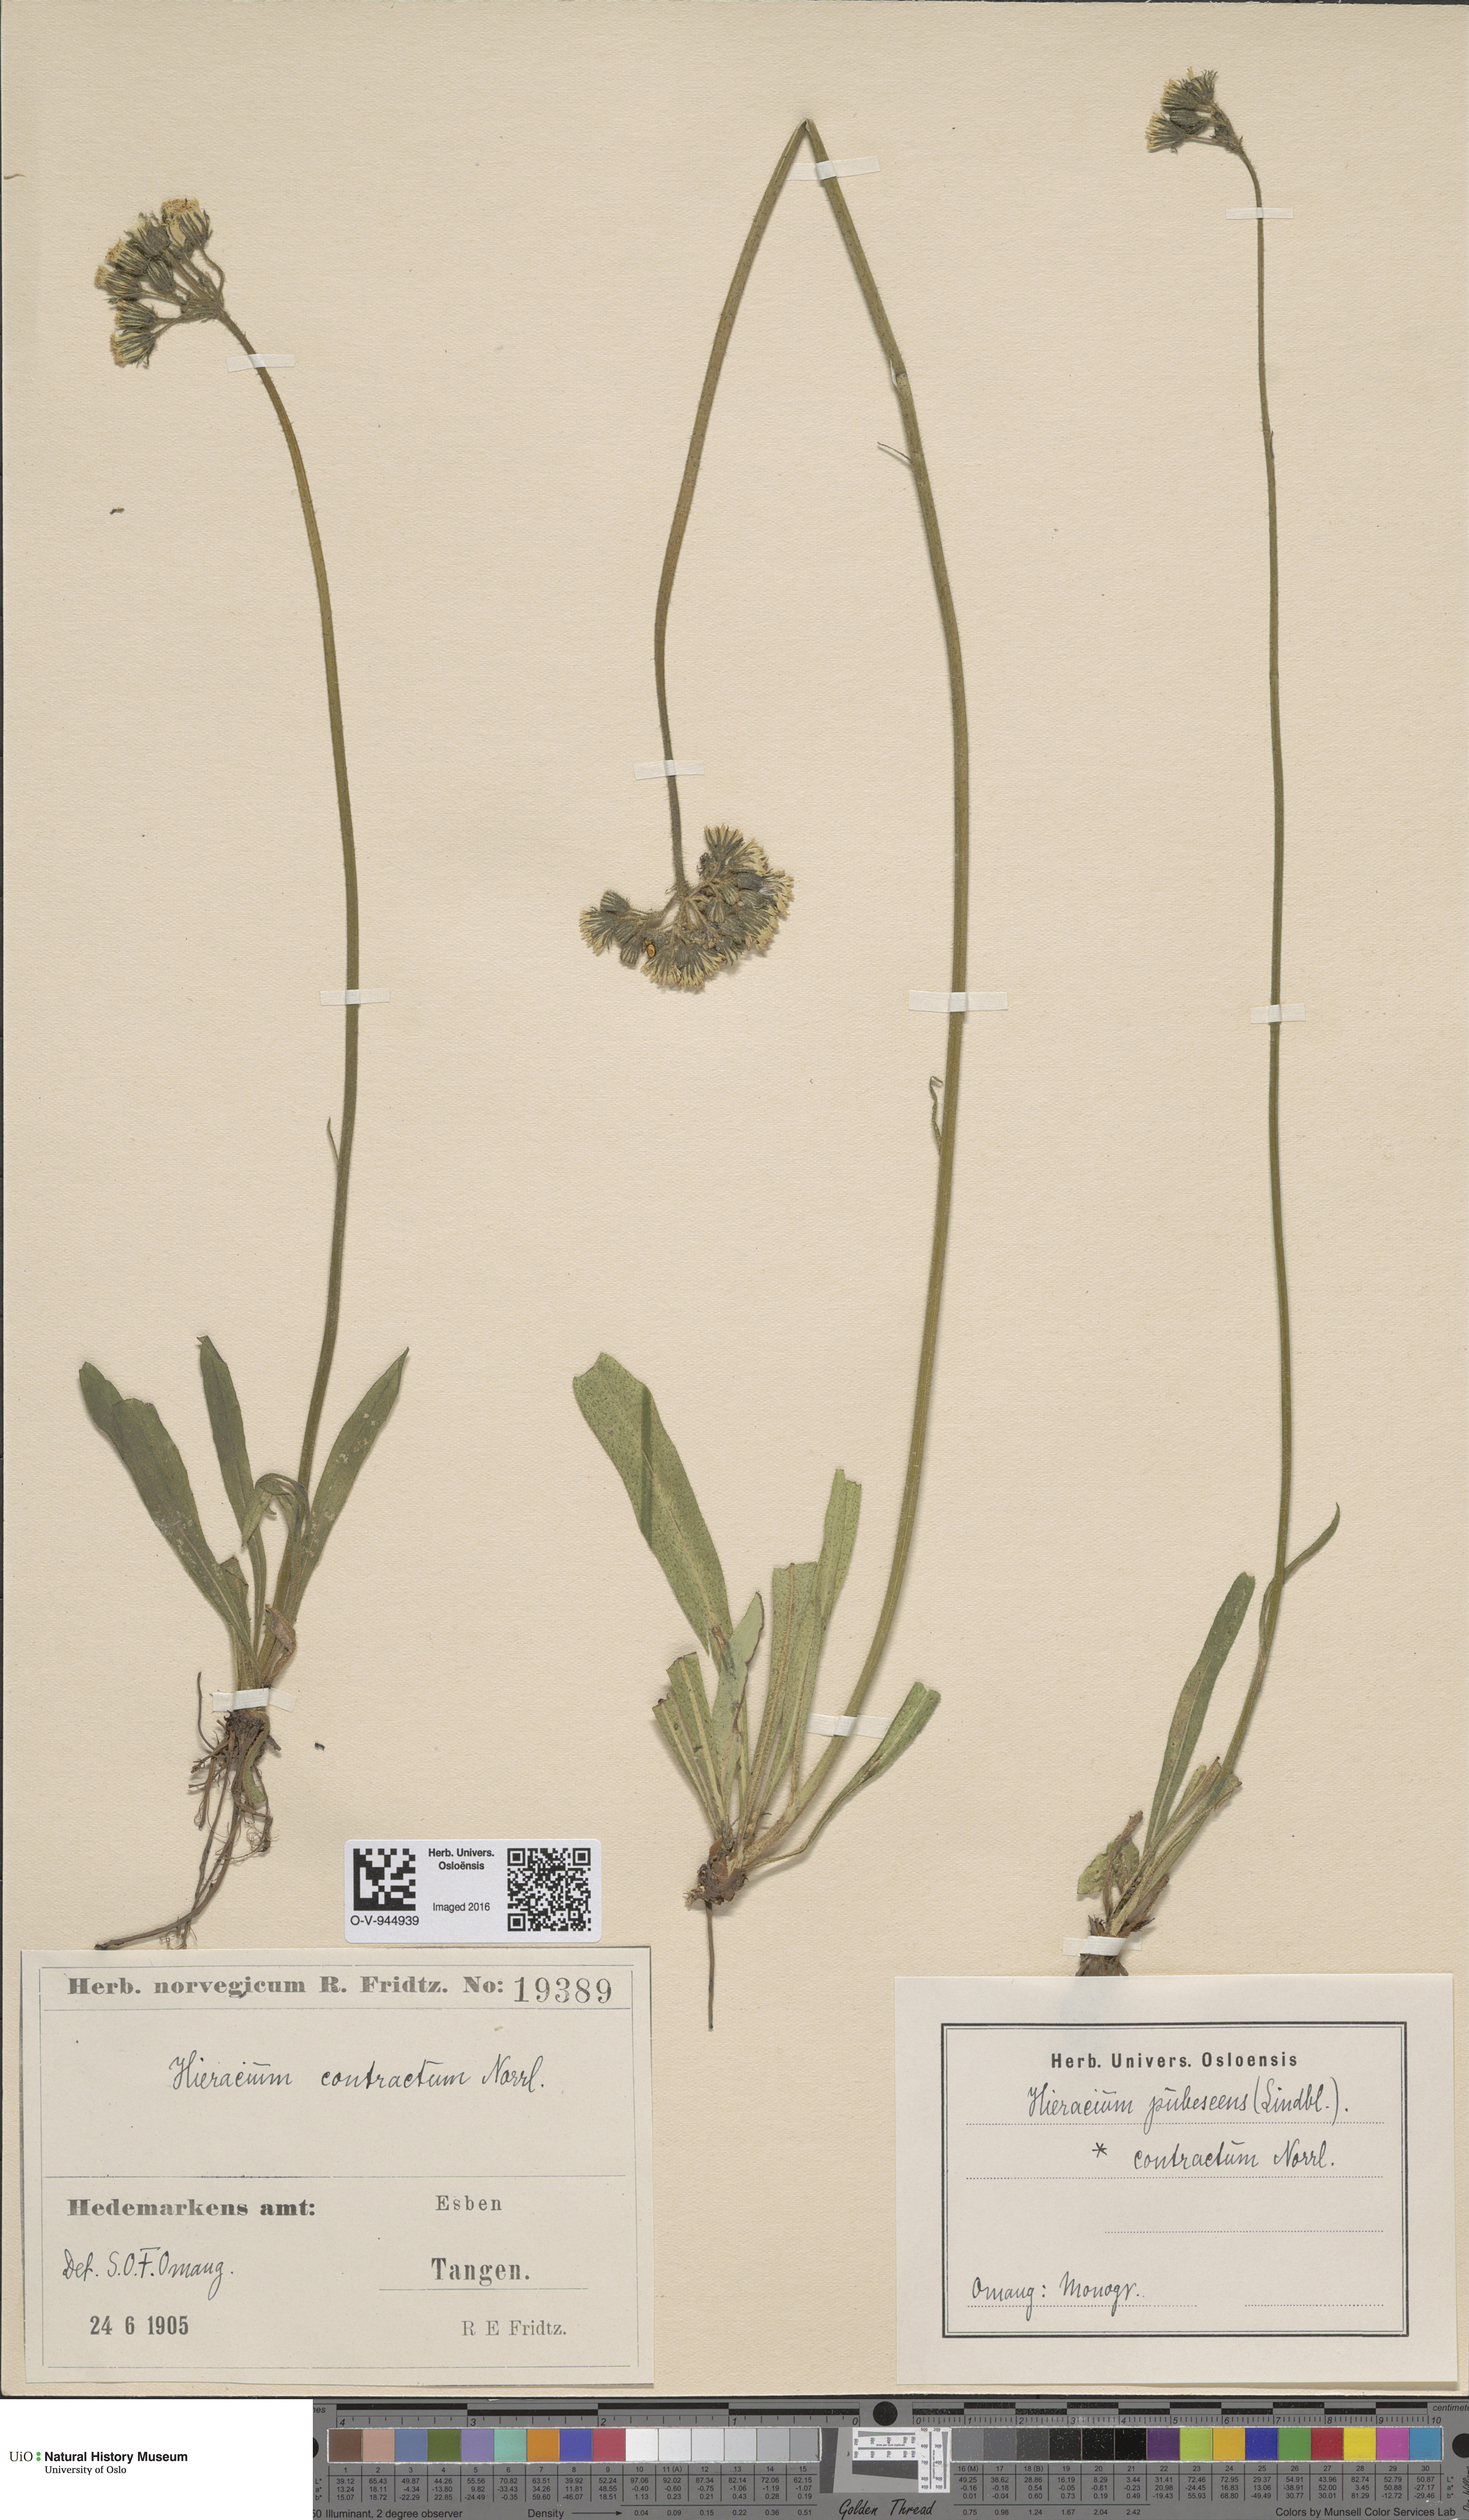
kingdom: Plantae
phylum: Tracheophyta
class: Magnoliopsida
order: Asterales
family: Asteraceae
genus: Pilosella
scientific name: Pilosella cymosa
